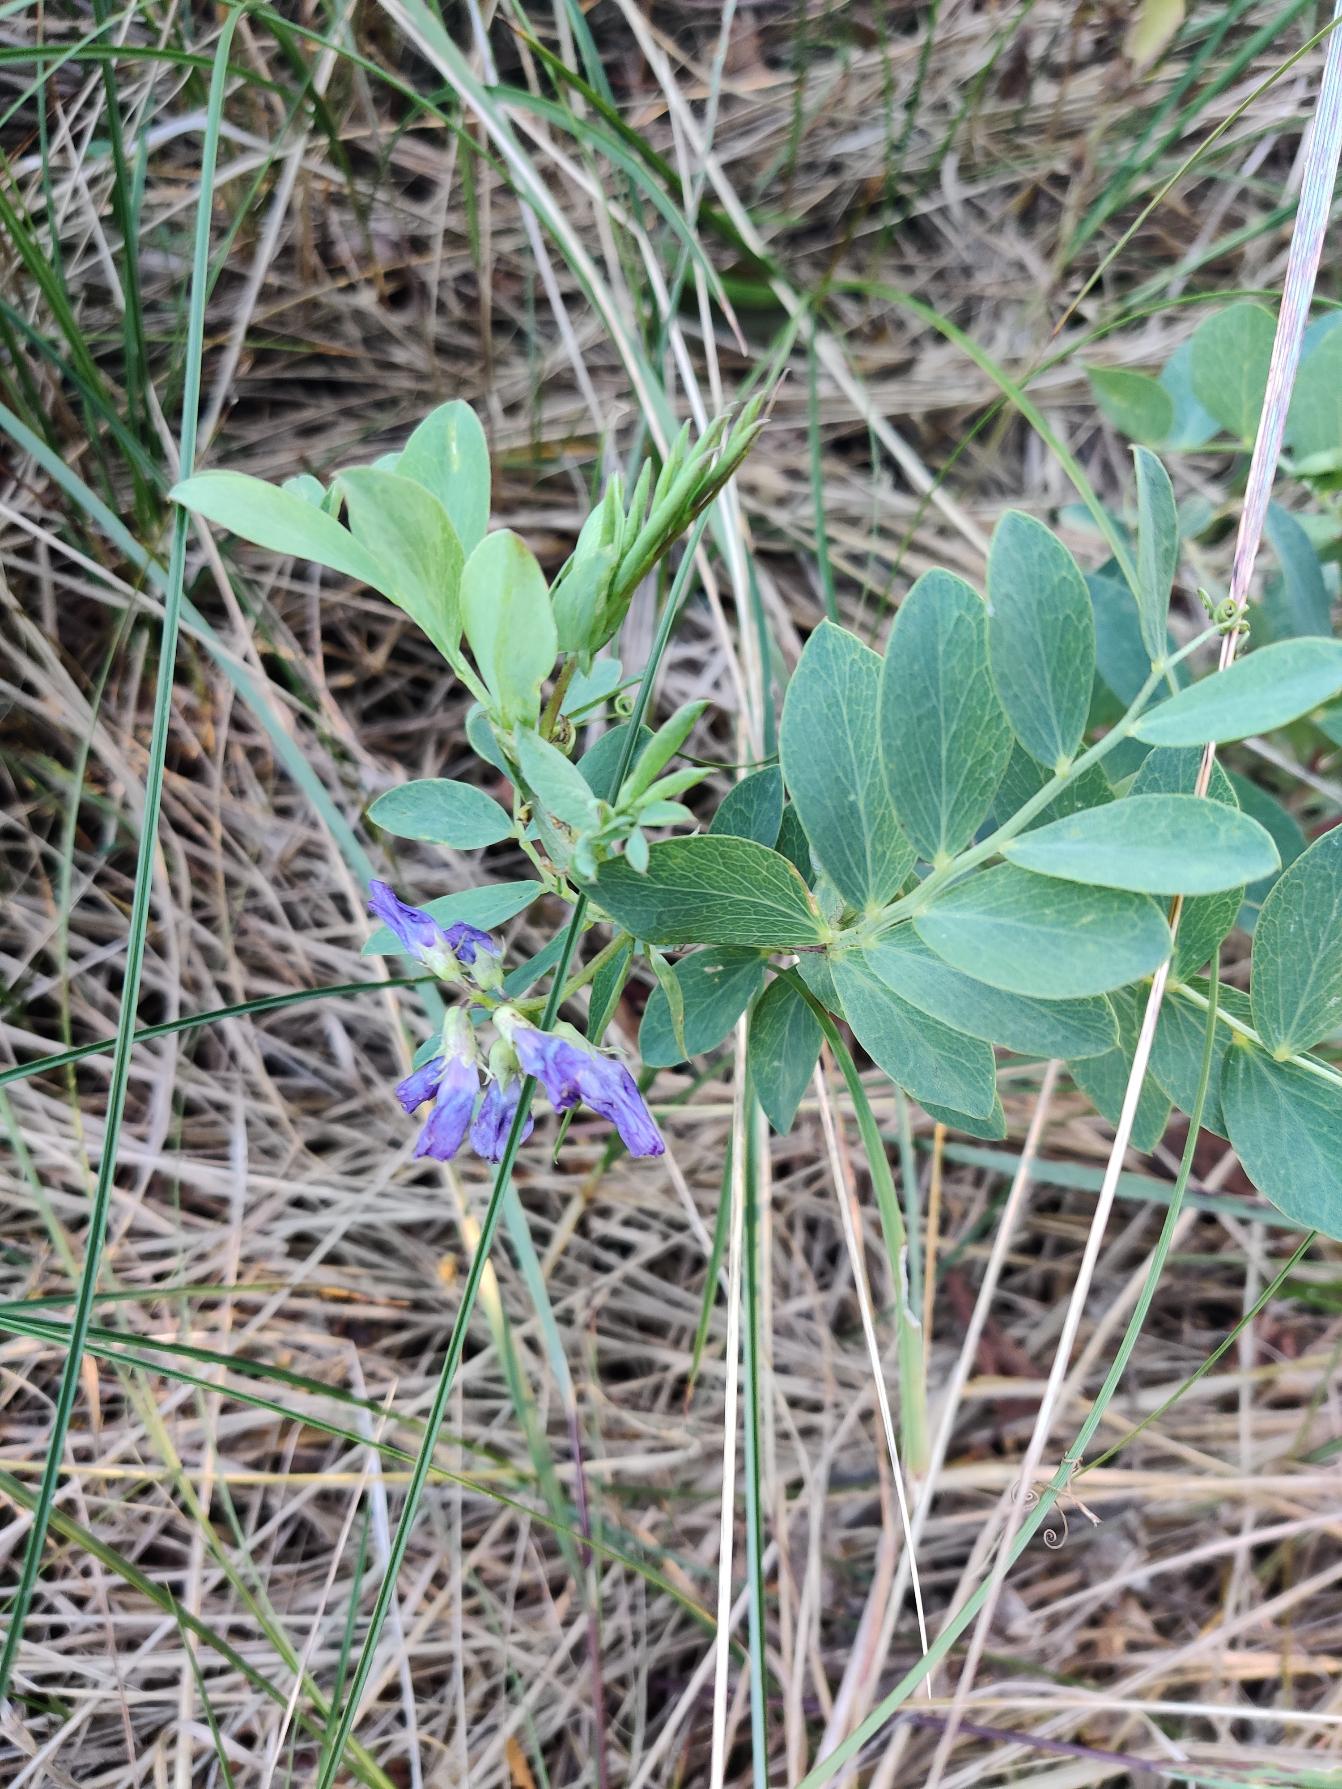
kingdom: Plantae
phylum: Tracheophyta
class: Magnoliopsida
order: Fabales
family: Fabaceae
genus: Lathyrus
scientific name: Lathyrus japonicus
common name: Strand-fladbælg
